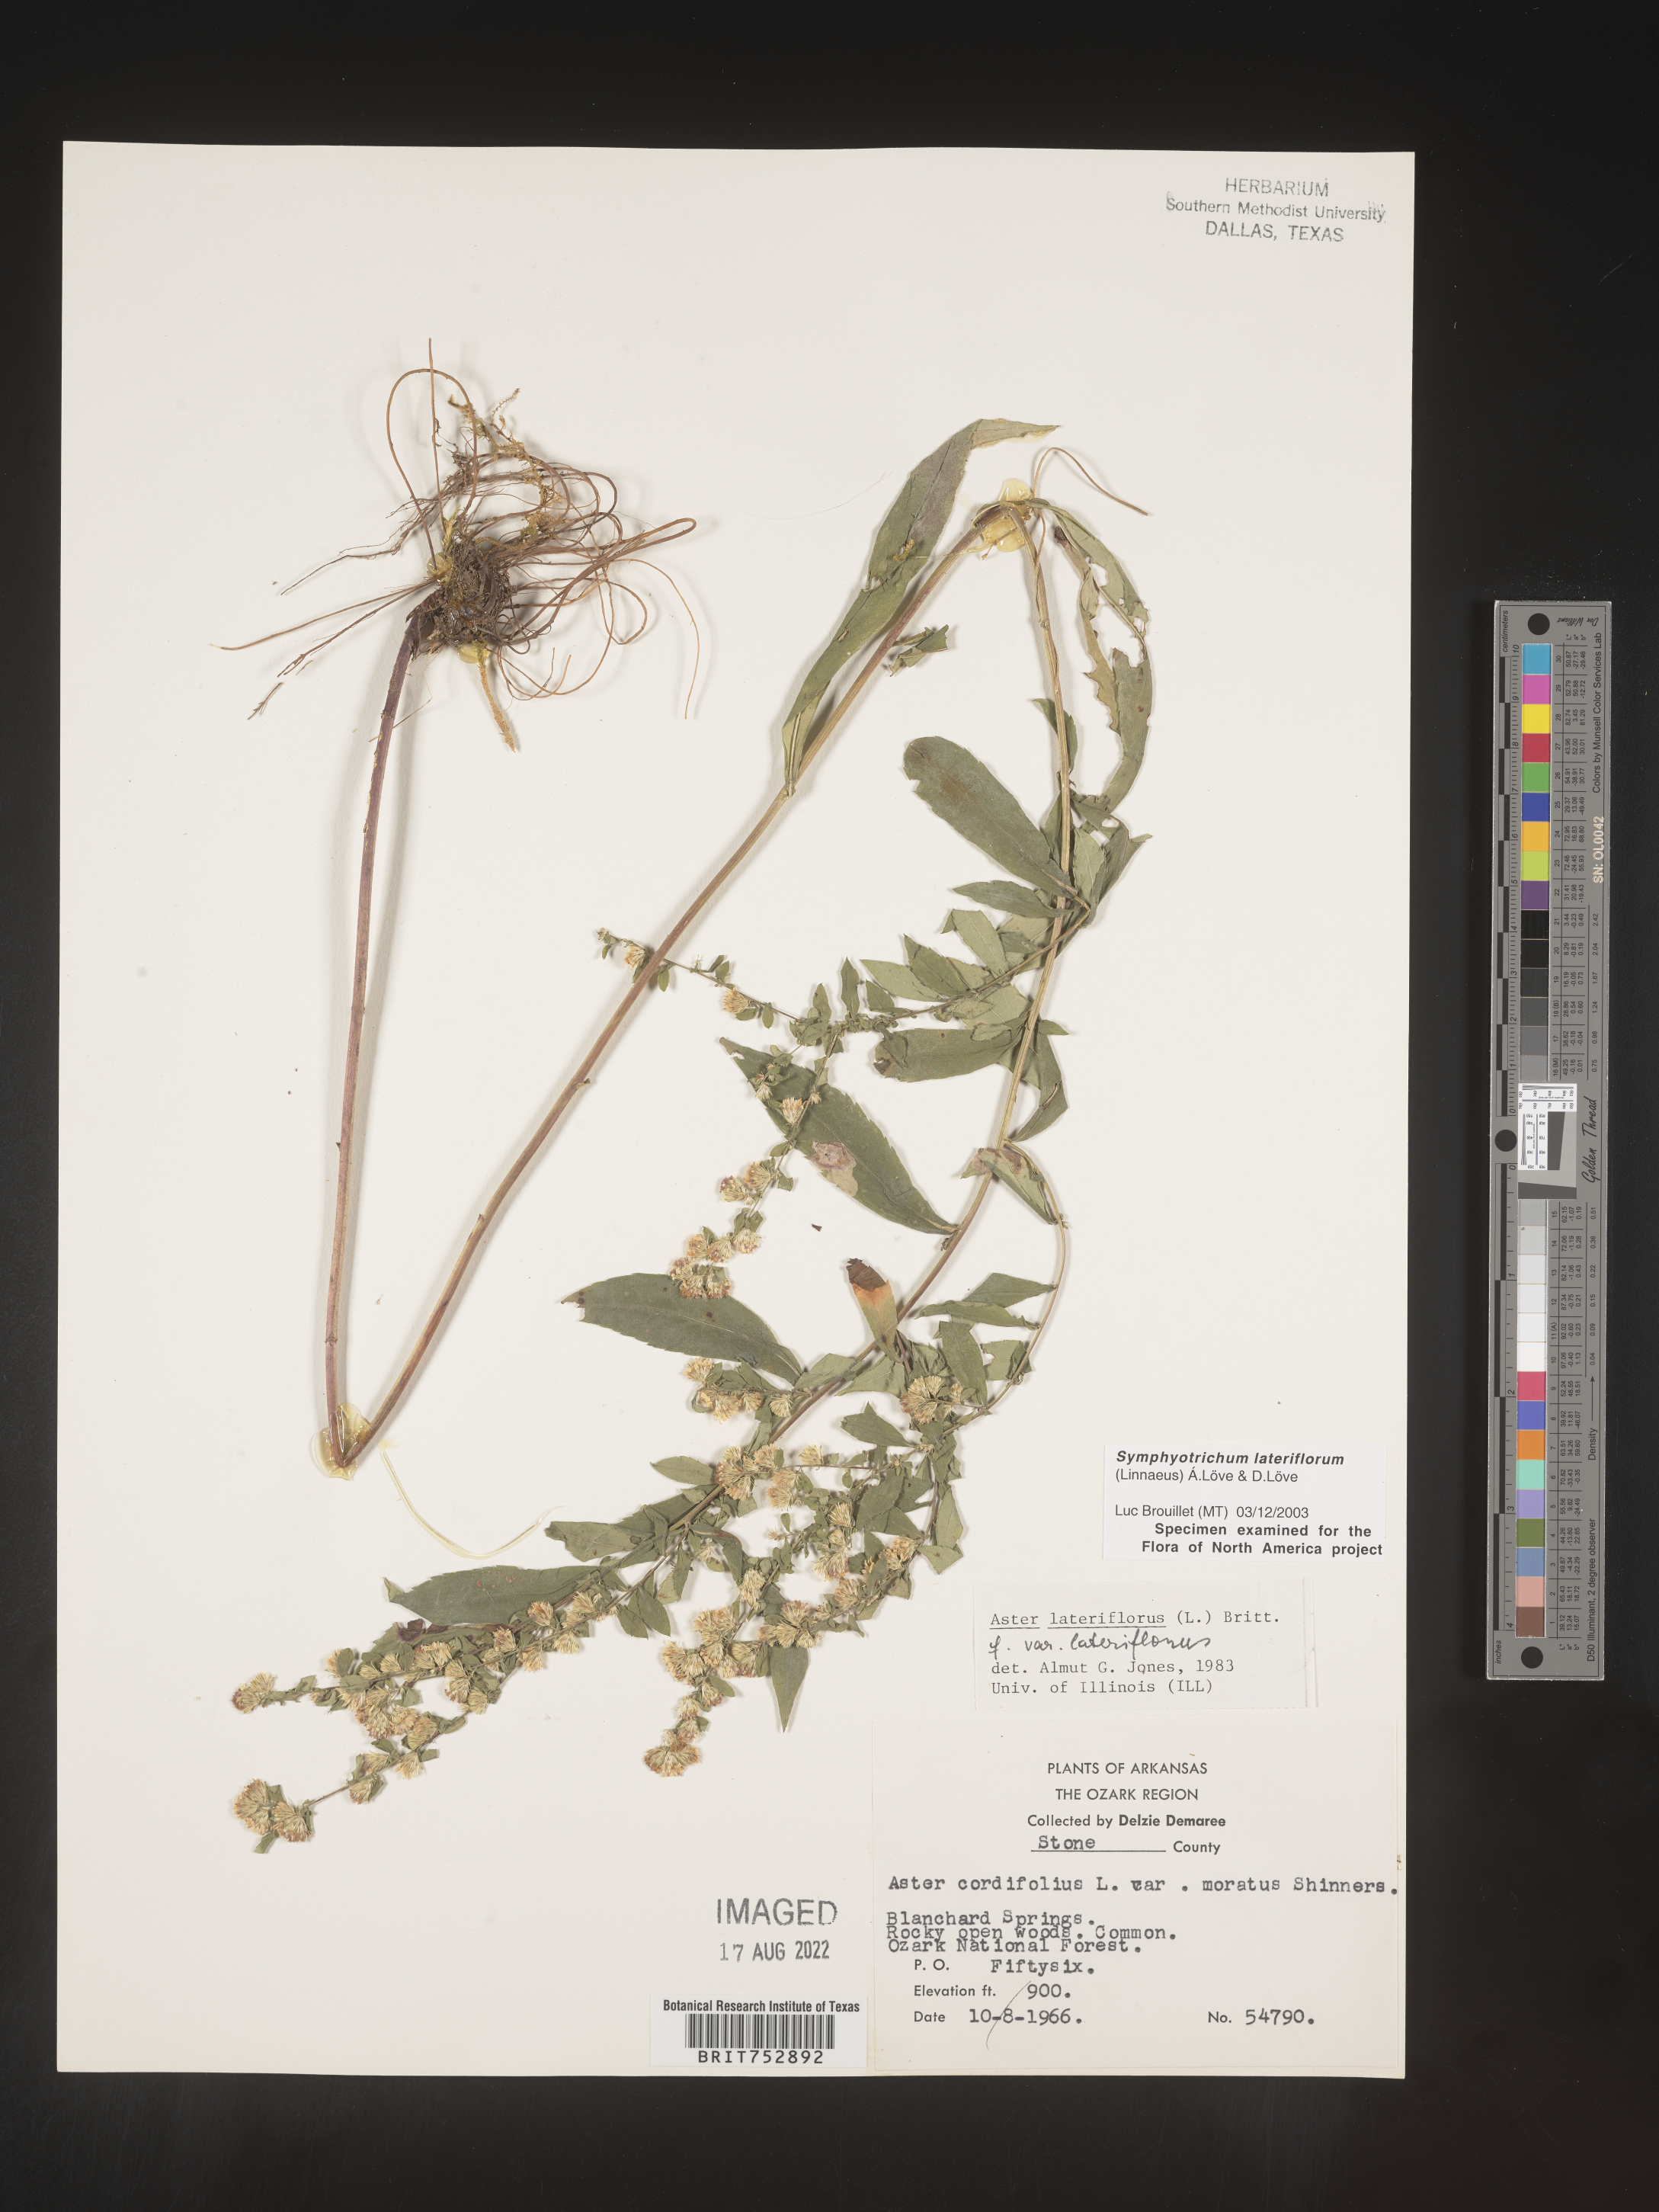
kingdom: Plantae
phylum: Tracheophyta
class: Magnoliopsida
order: Asterales
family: Asteraceae
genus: Symphyotrichum
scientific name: Symphyotrichum lateriflorum
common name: Calico aster
